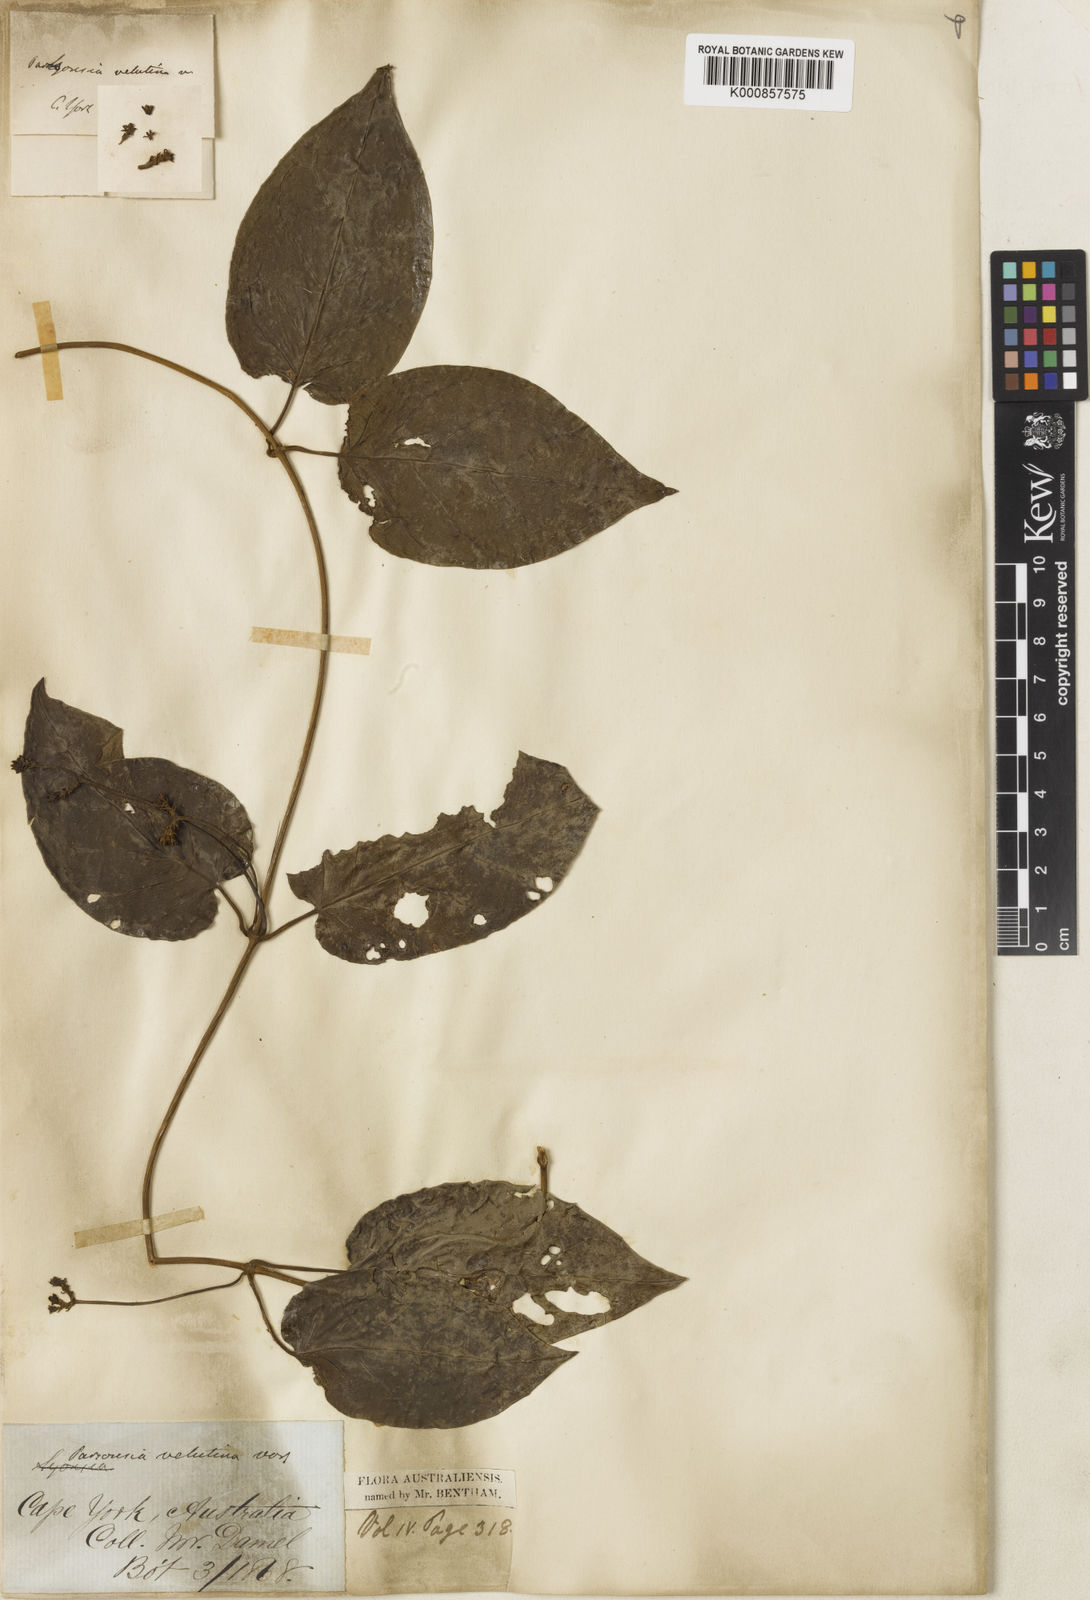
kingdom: Plantae
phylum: Tracheophyta
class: Magnoliopsida
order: Gentianales
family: Apocynaceae
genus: Parsonsia
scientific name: Parsonsia velutina
